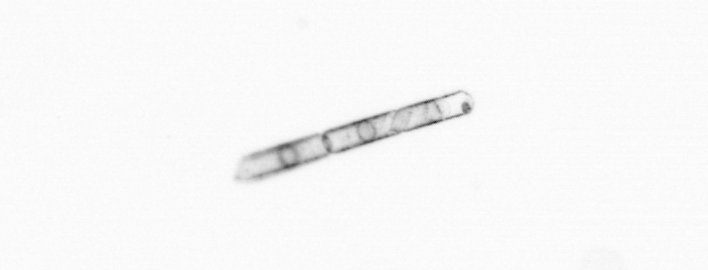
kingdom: Chromista
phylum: Ochrophyta
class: Bacillariophyceae
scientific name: Bacillariophyceae
